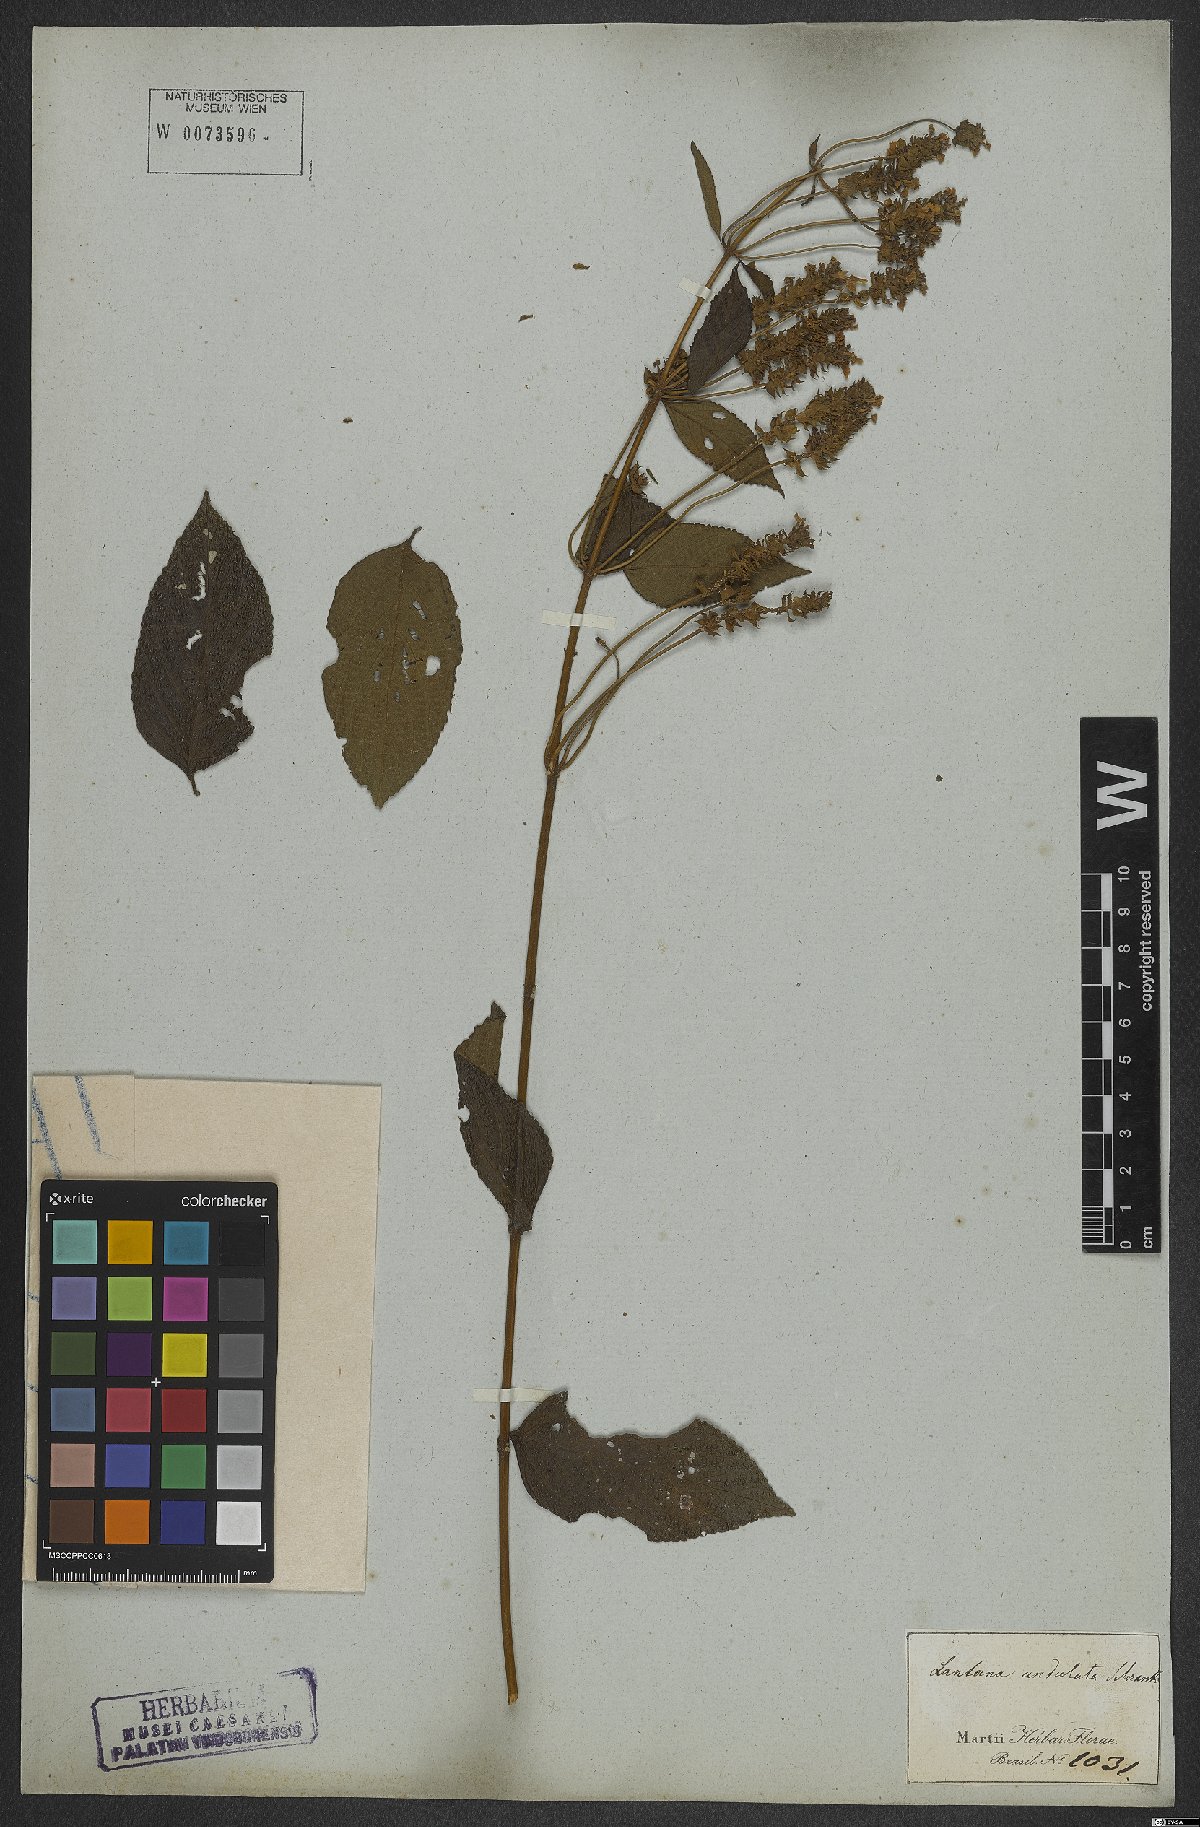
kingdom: Plantae
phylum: Tracheophyta
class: Magnoliopsida
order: Lamiales
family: Verbenaceae
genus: Lantana
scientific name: Lantana undulata
